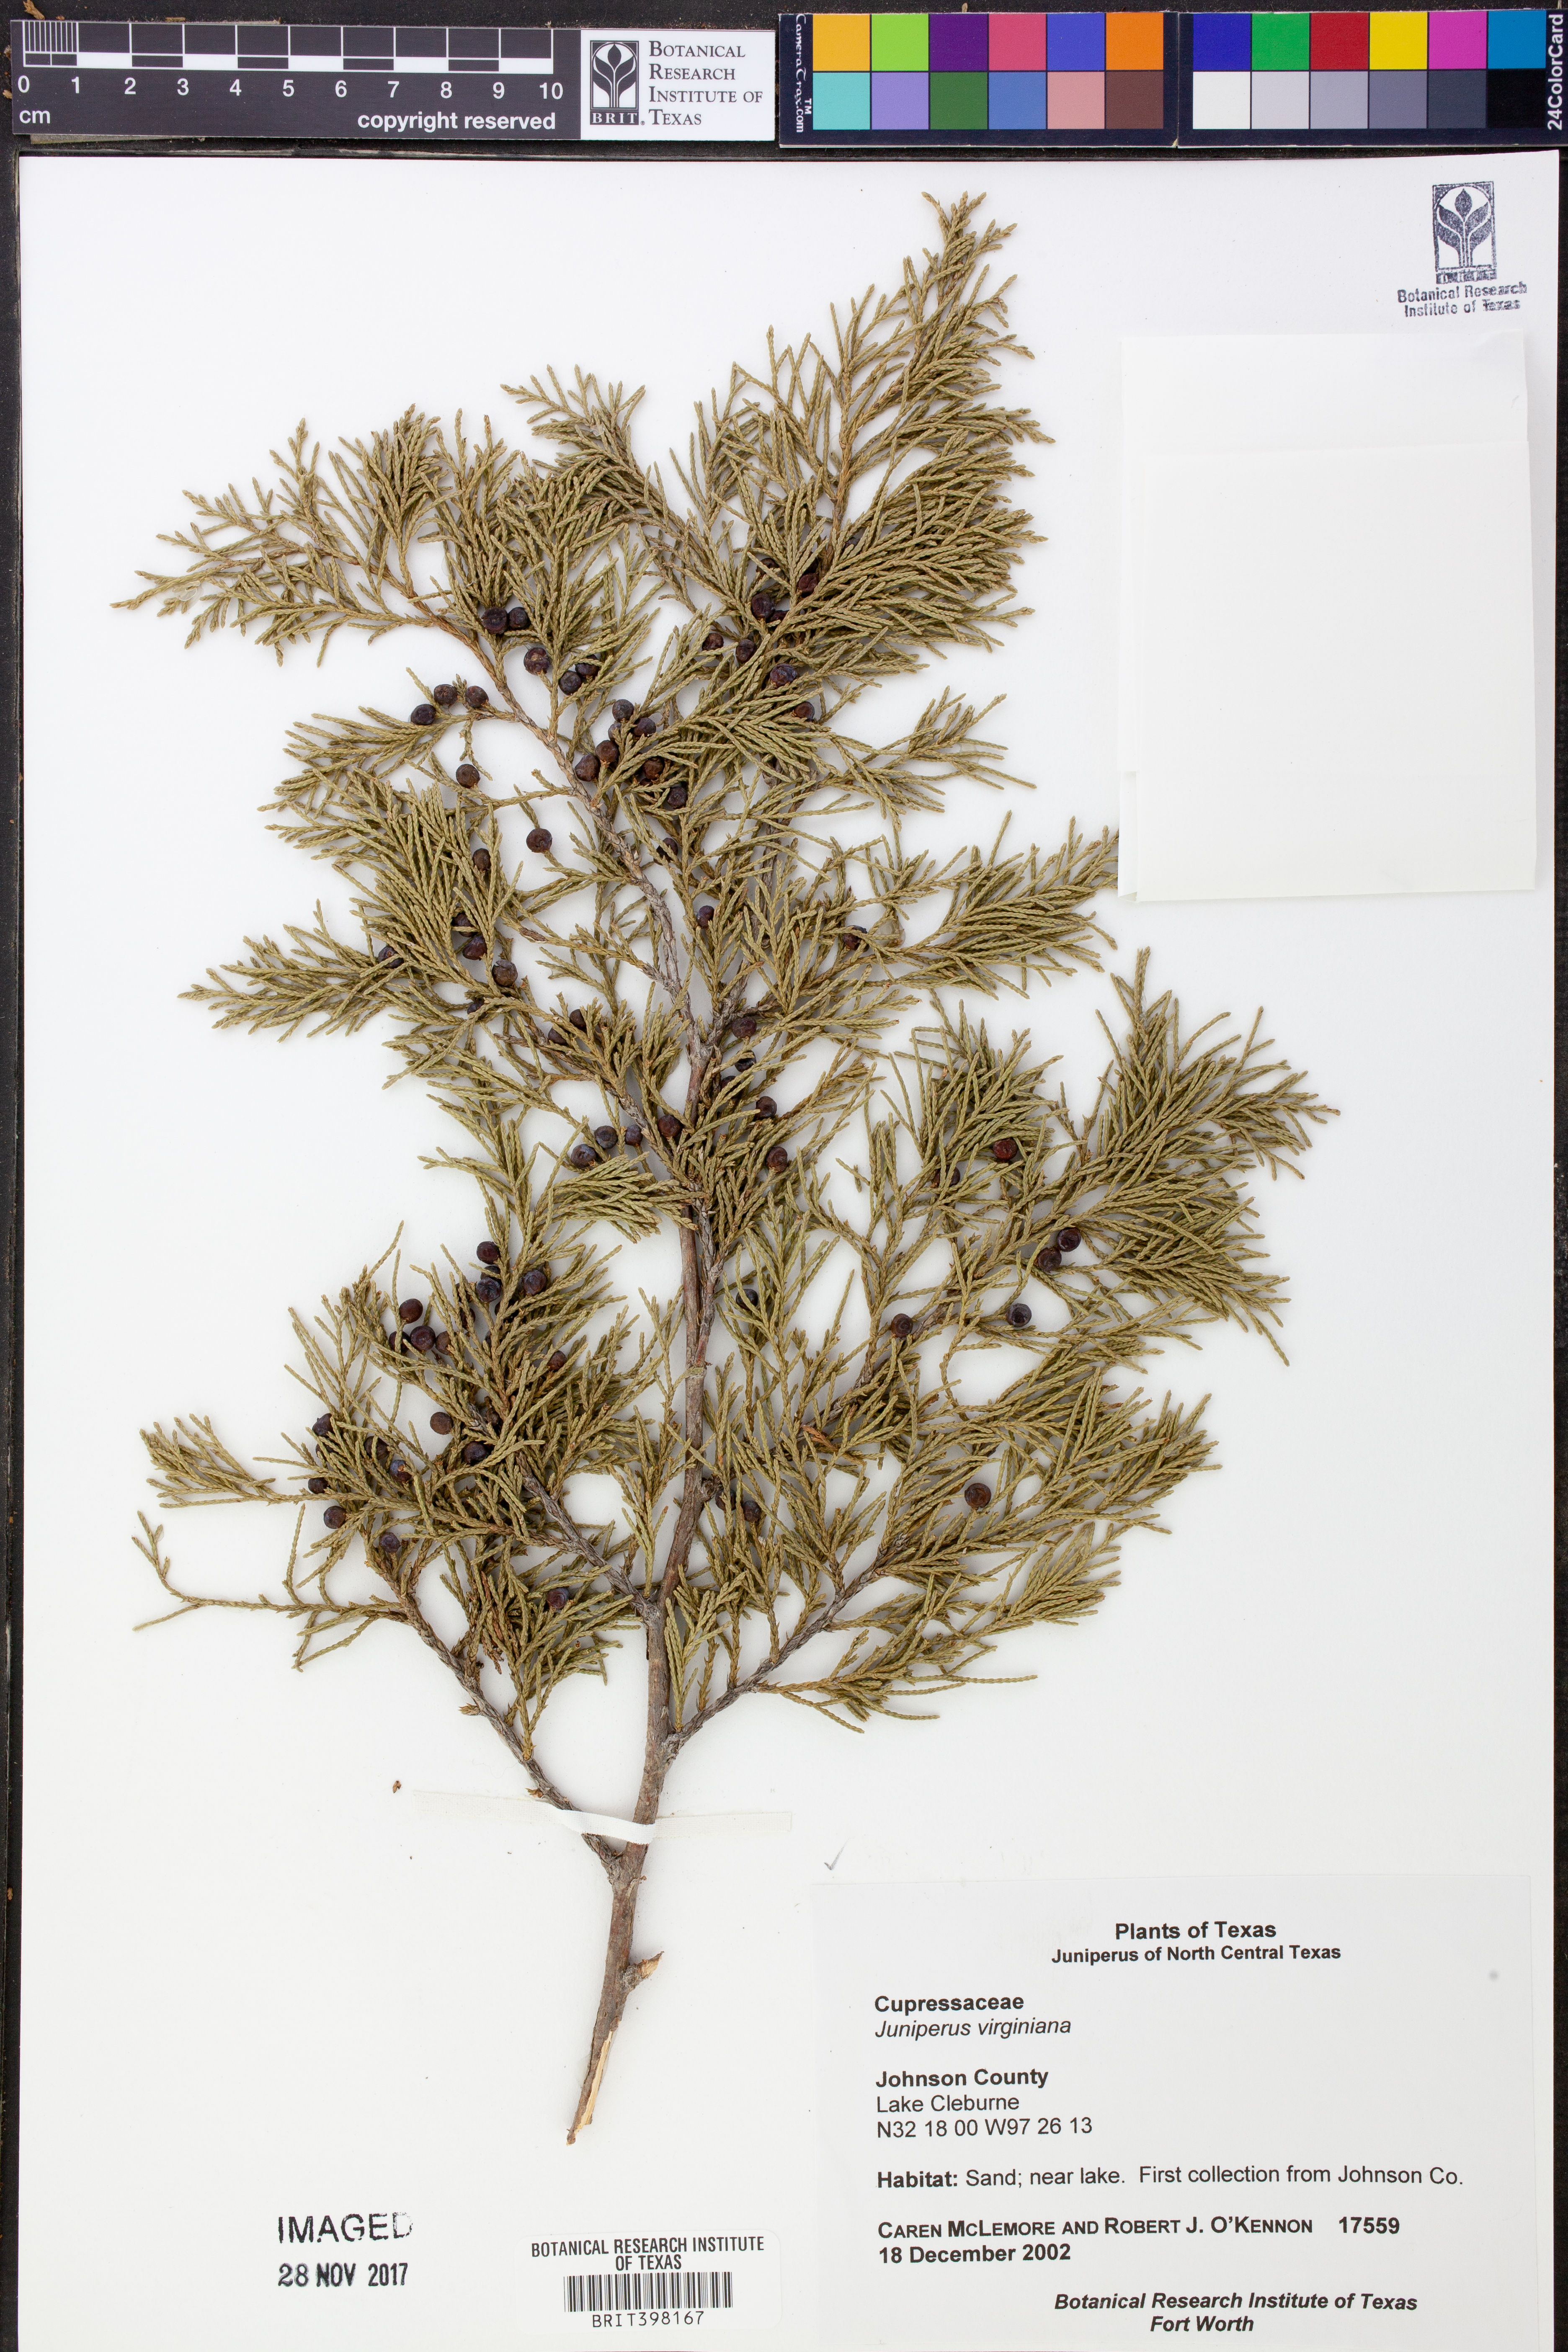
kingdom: Plantae
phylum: Tracheophyta
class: Pinopsida
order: Pinales
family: Cupressaceae
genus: Juniperus
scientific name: Juniperus virginiana
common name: Red juniper
